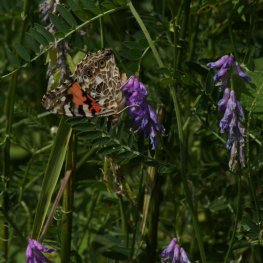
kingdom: Animalia
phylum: Arthropoda
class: Insecta
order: Lepidoptera
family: Nymphalidae
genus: Vanessa
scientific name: Vanessa cardui
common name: Painted Lady
